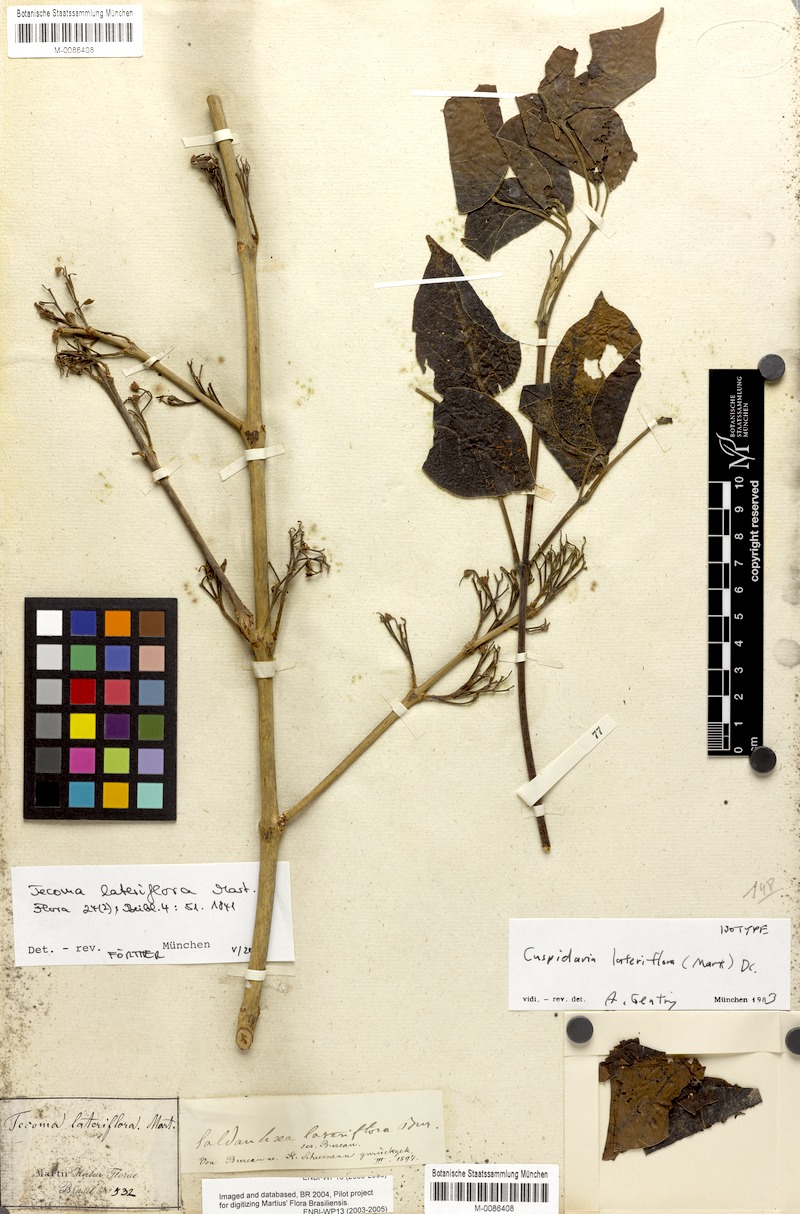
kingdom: Plantae
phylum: Tracheophyta
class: Magnoliopsida
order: Lamiales
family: Bignoniaceae
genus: Cuspidaria
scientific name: Cuspidaria lateriflora
